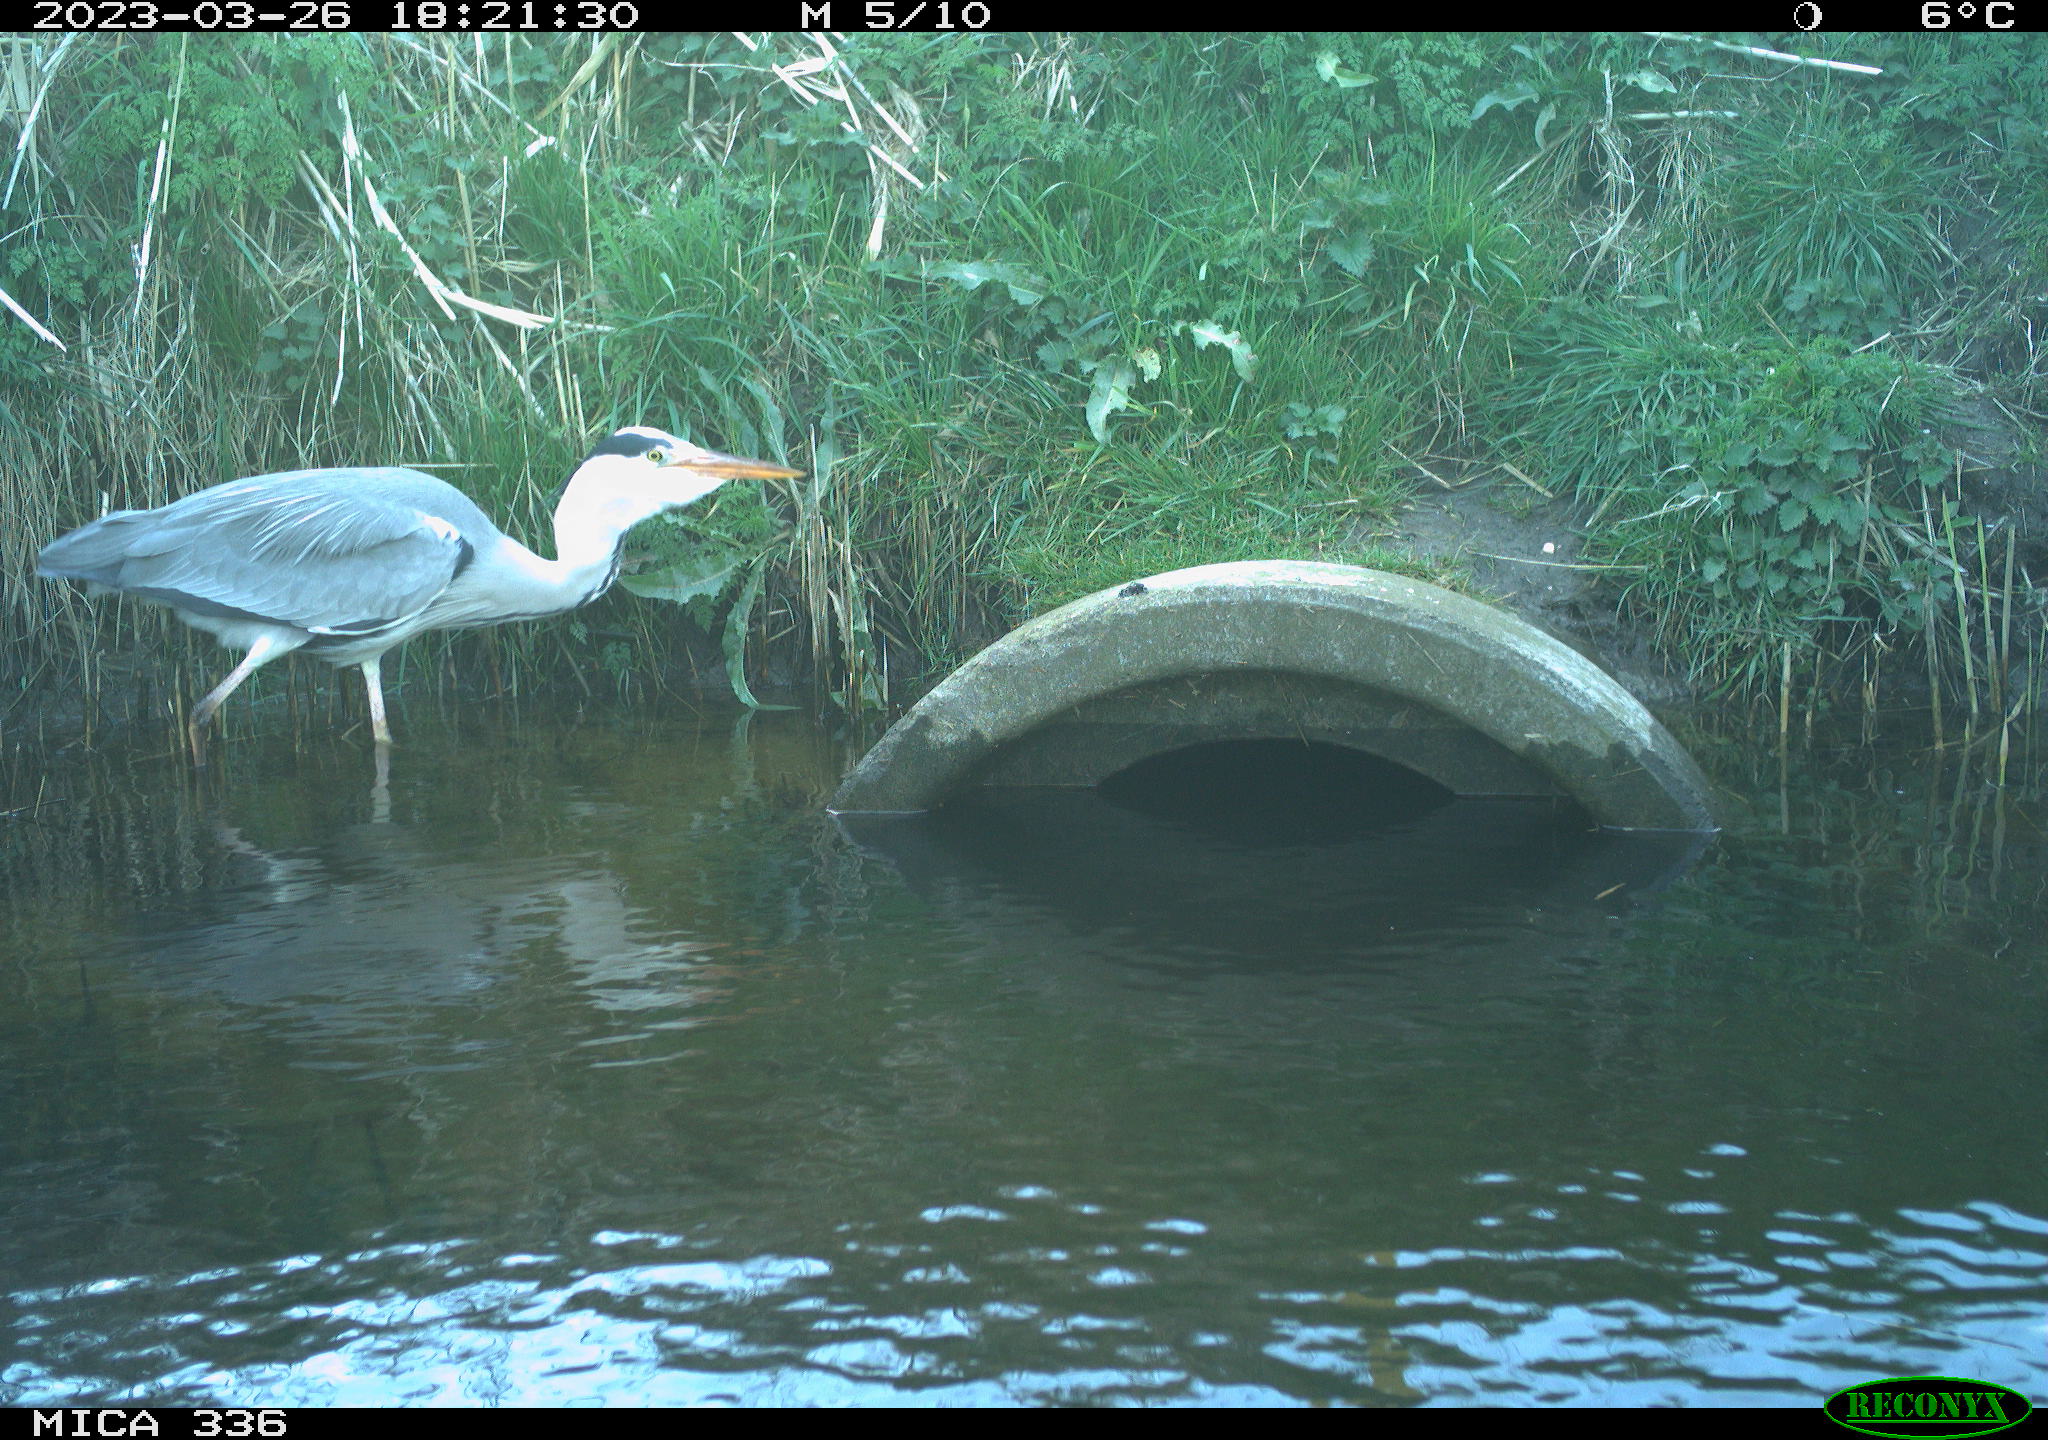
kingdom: Animalia
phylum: Chordata
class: Aves
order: Pelecaniformes
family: Ardeidae
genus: Ardea
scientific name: Ardea
